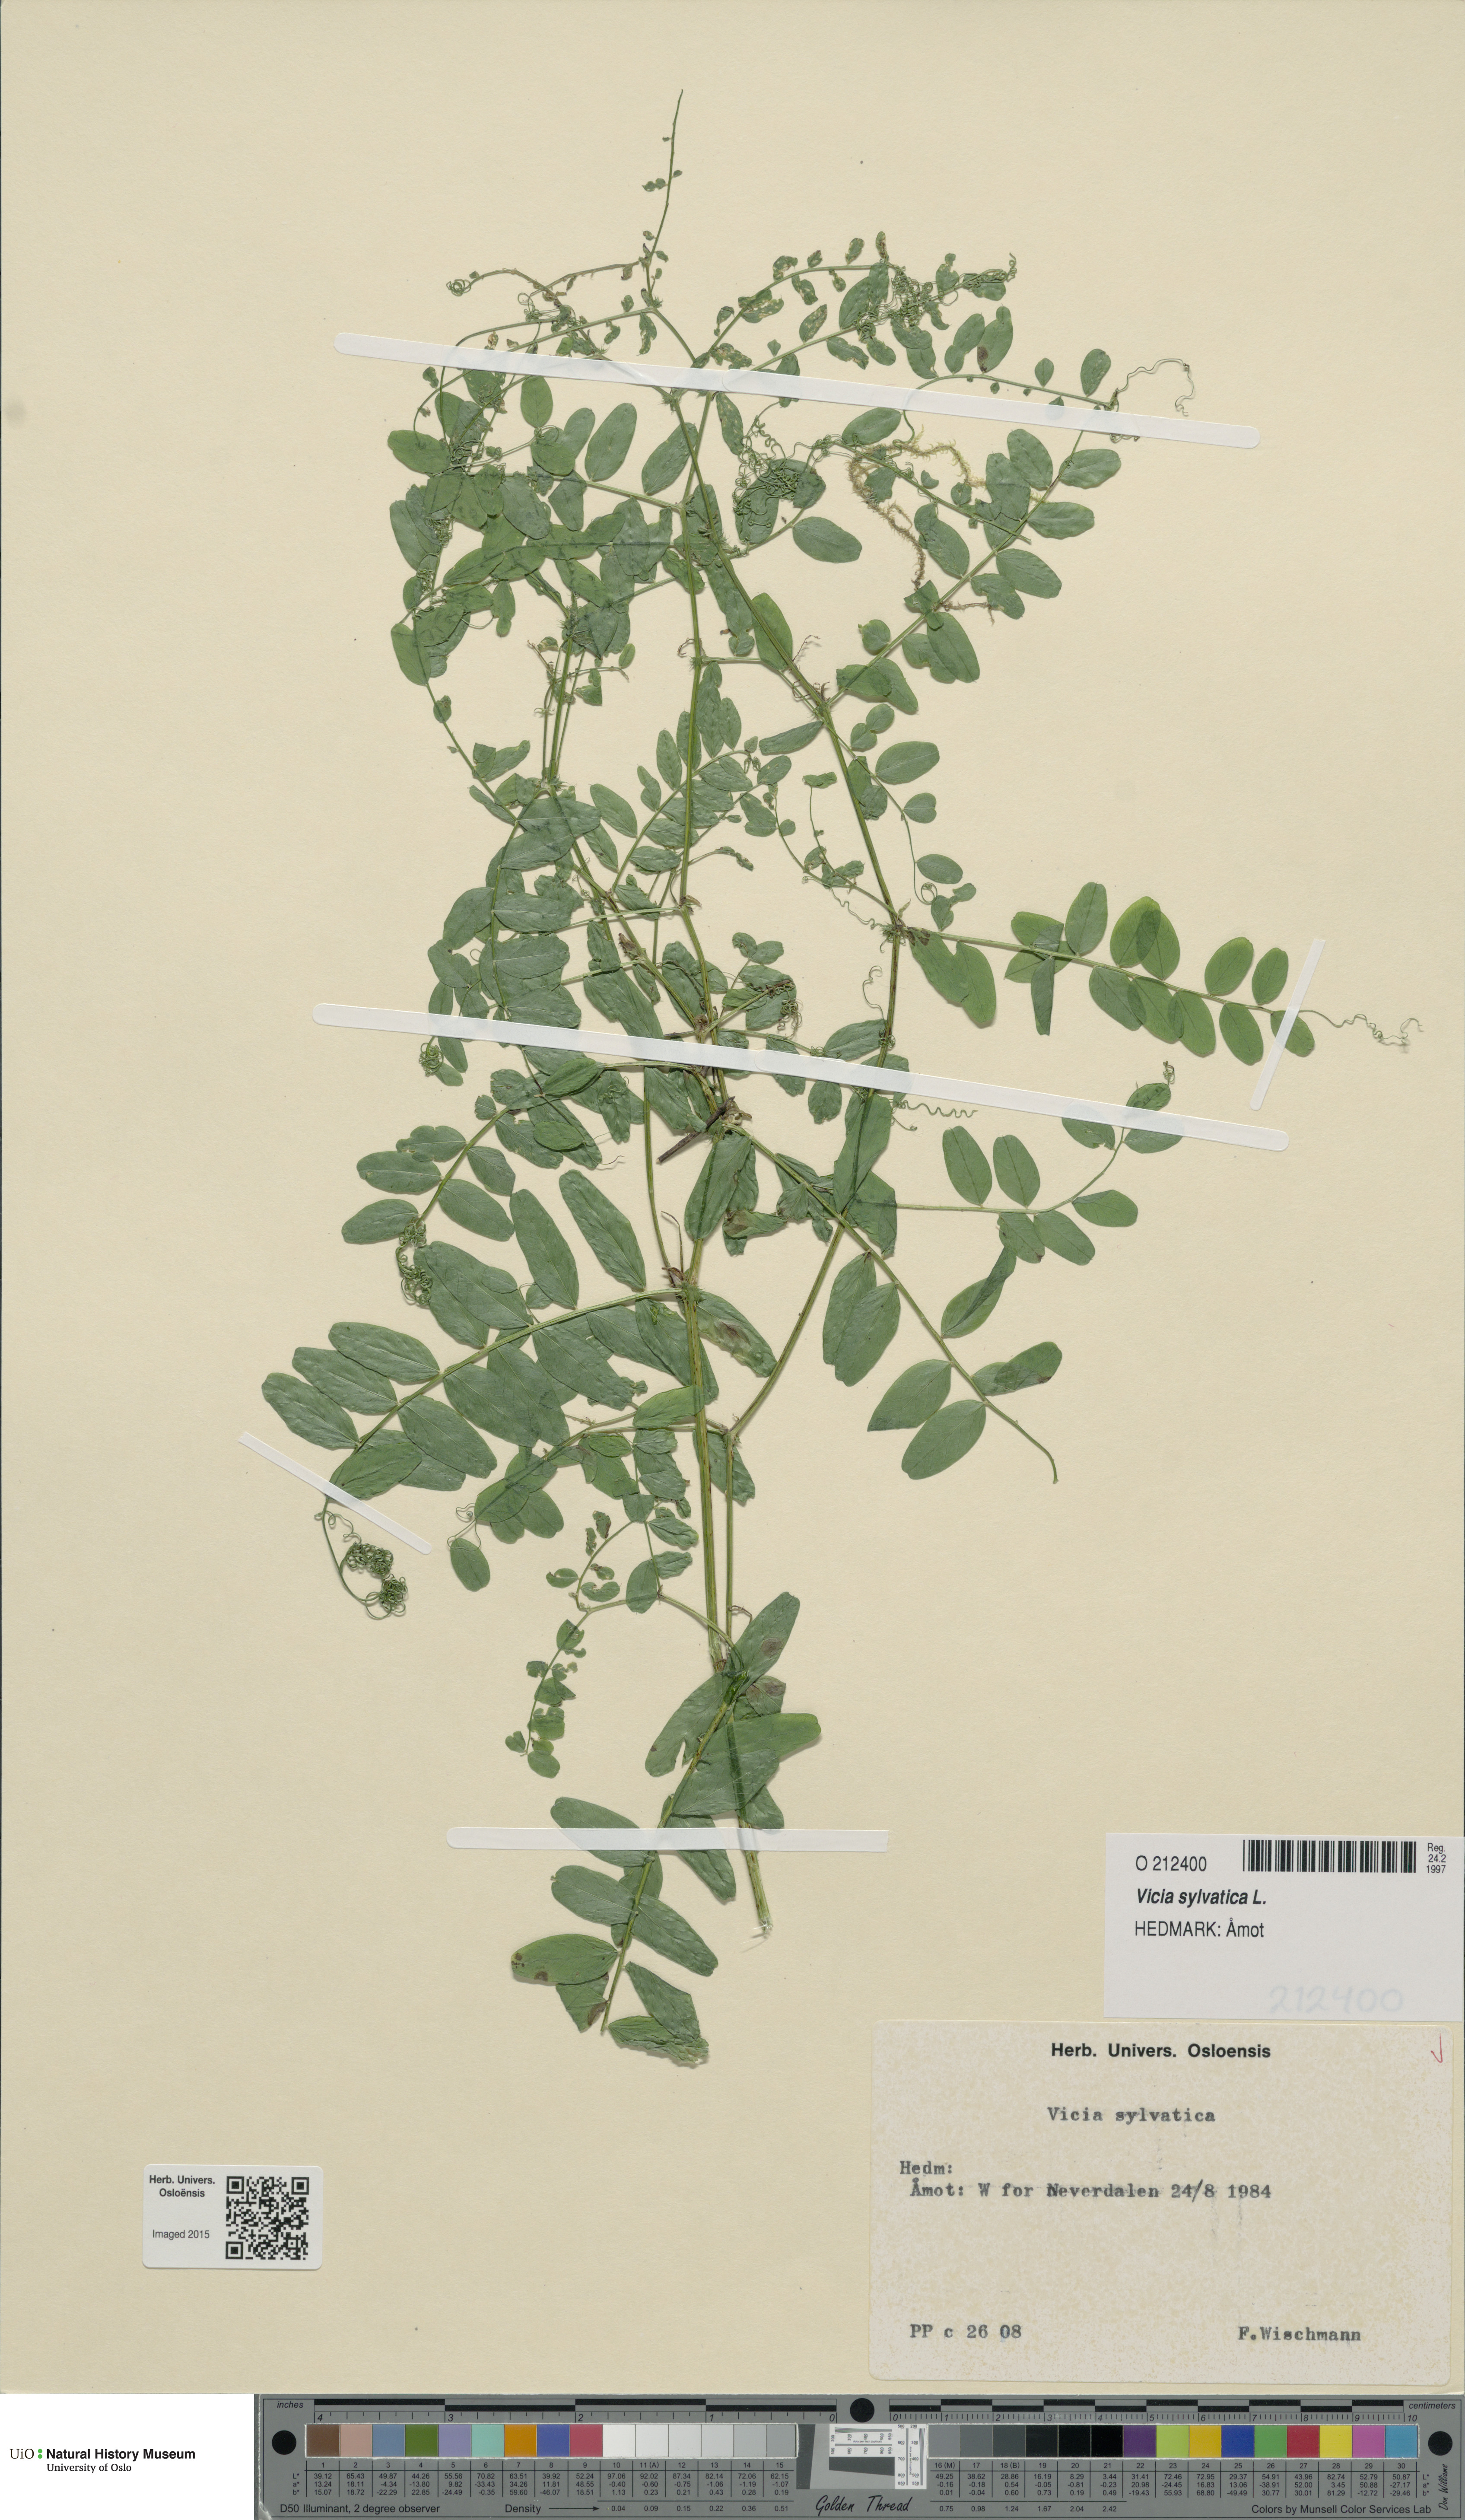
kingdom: Plantae
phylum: Tracheophyta
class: Magnoliopsida
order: Fabales
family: Fabaceae
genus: Vicia
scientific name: Vicia sylvatica
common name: Wood vetch
